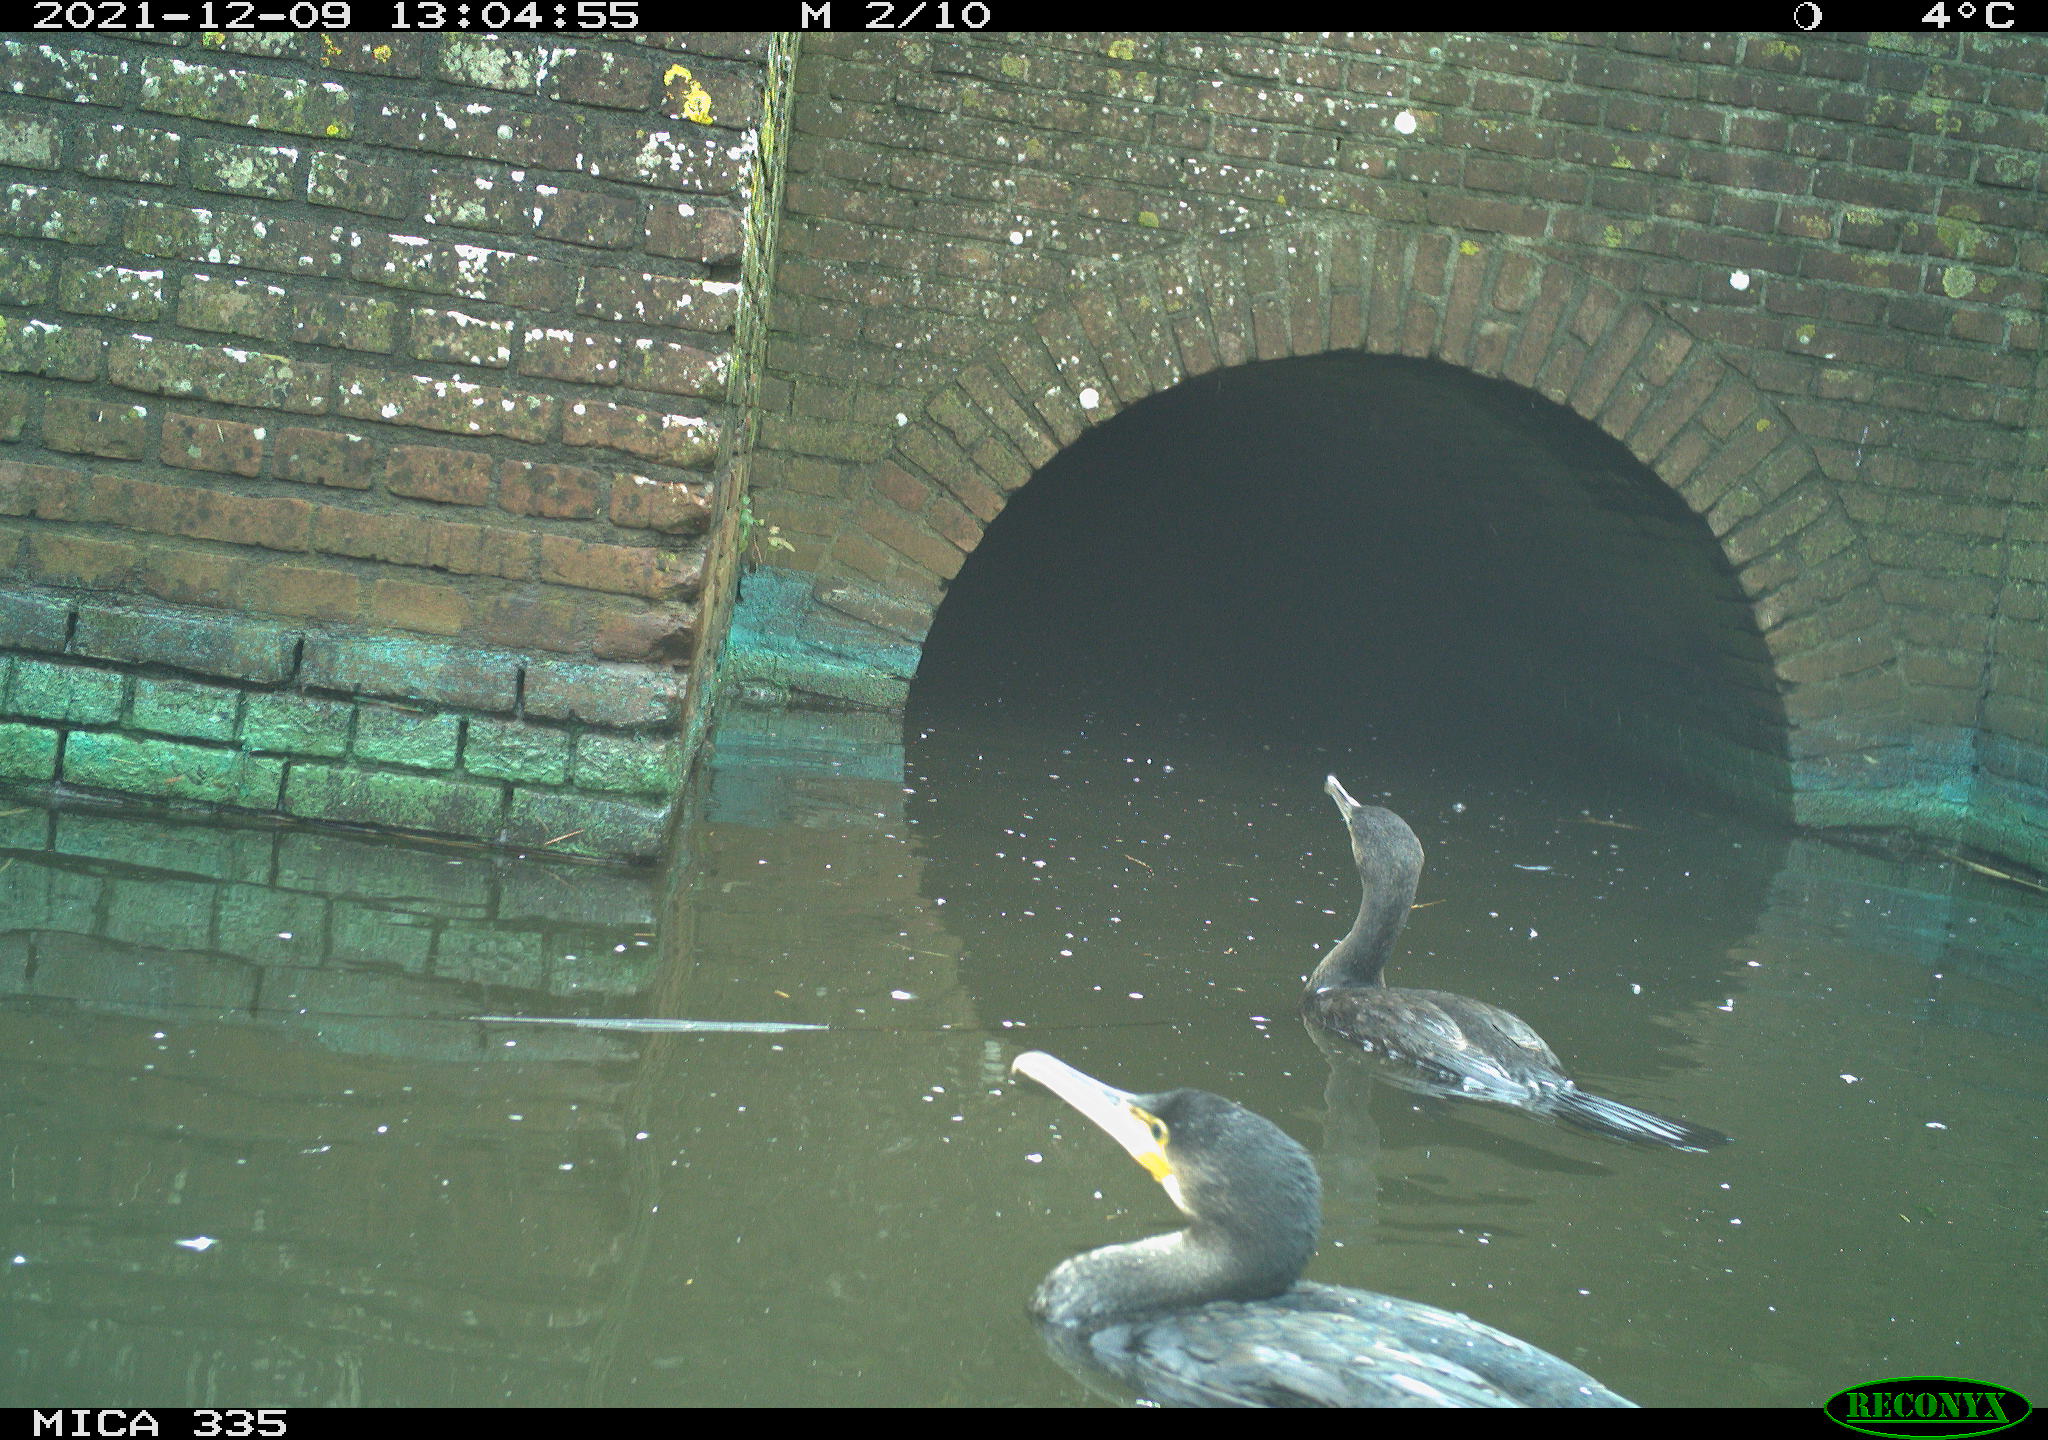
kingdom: Animalia
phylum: Chordata
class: Aves
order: Suliformes
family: Phalacrocoracidae
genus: Phalacrocorax
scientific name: Phalacrocorax carbo
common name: Great cormorant
